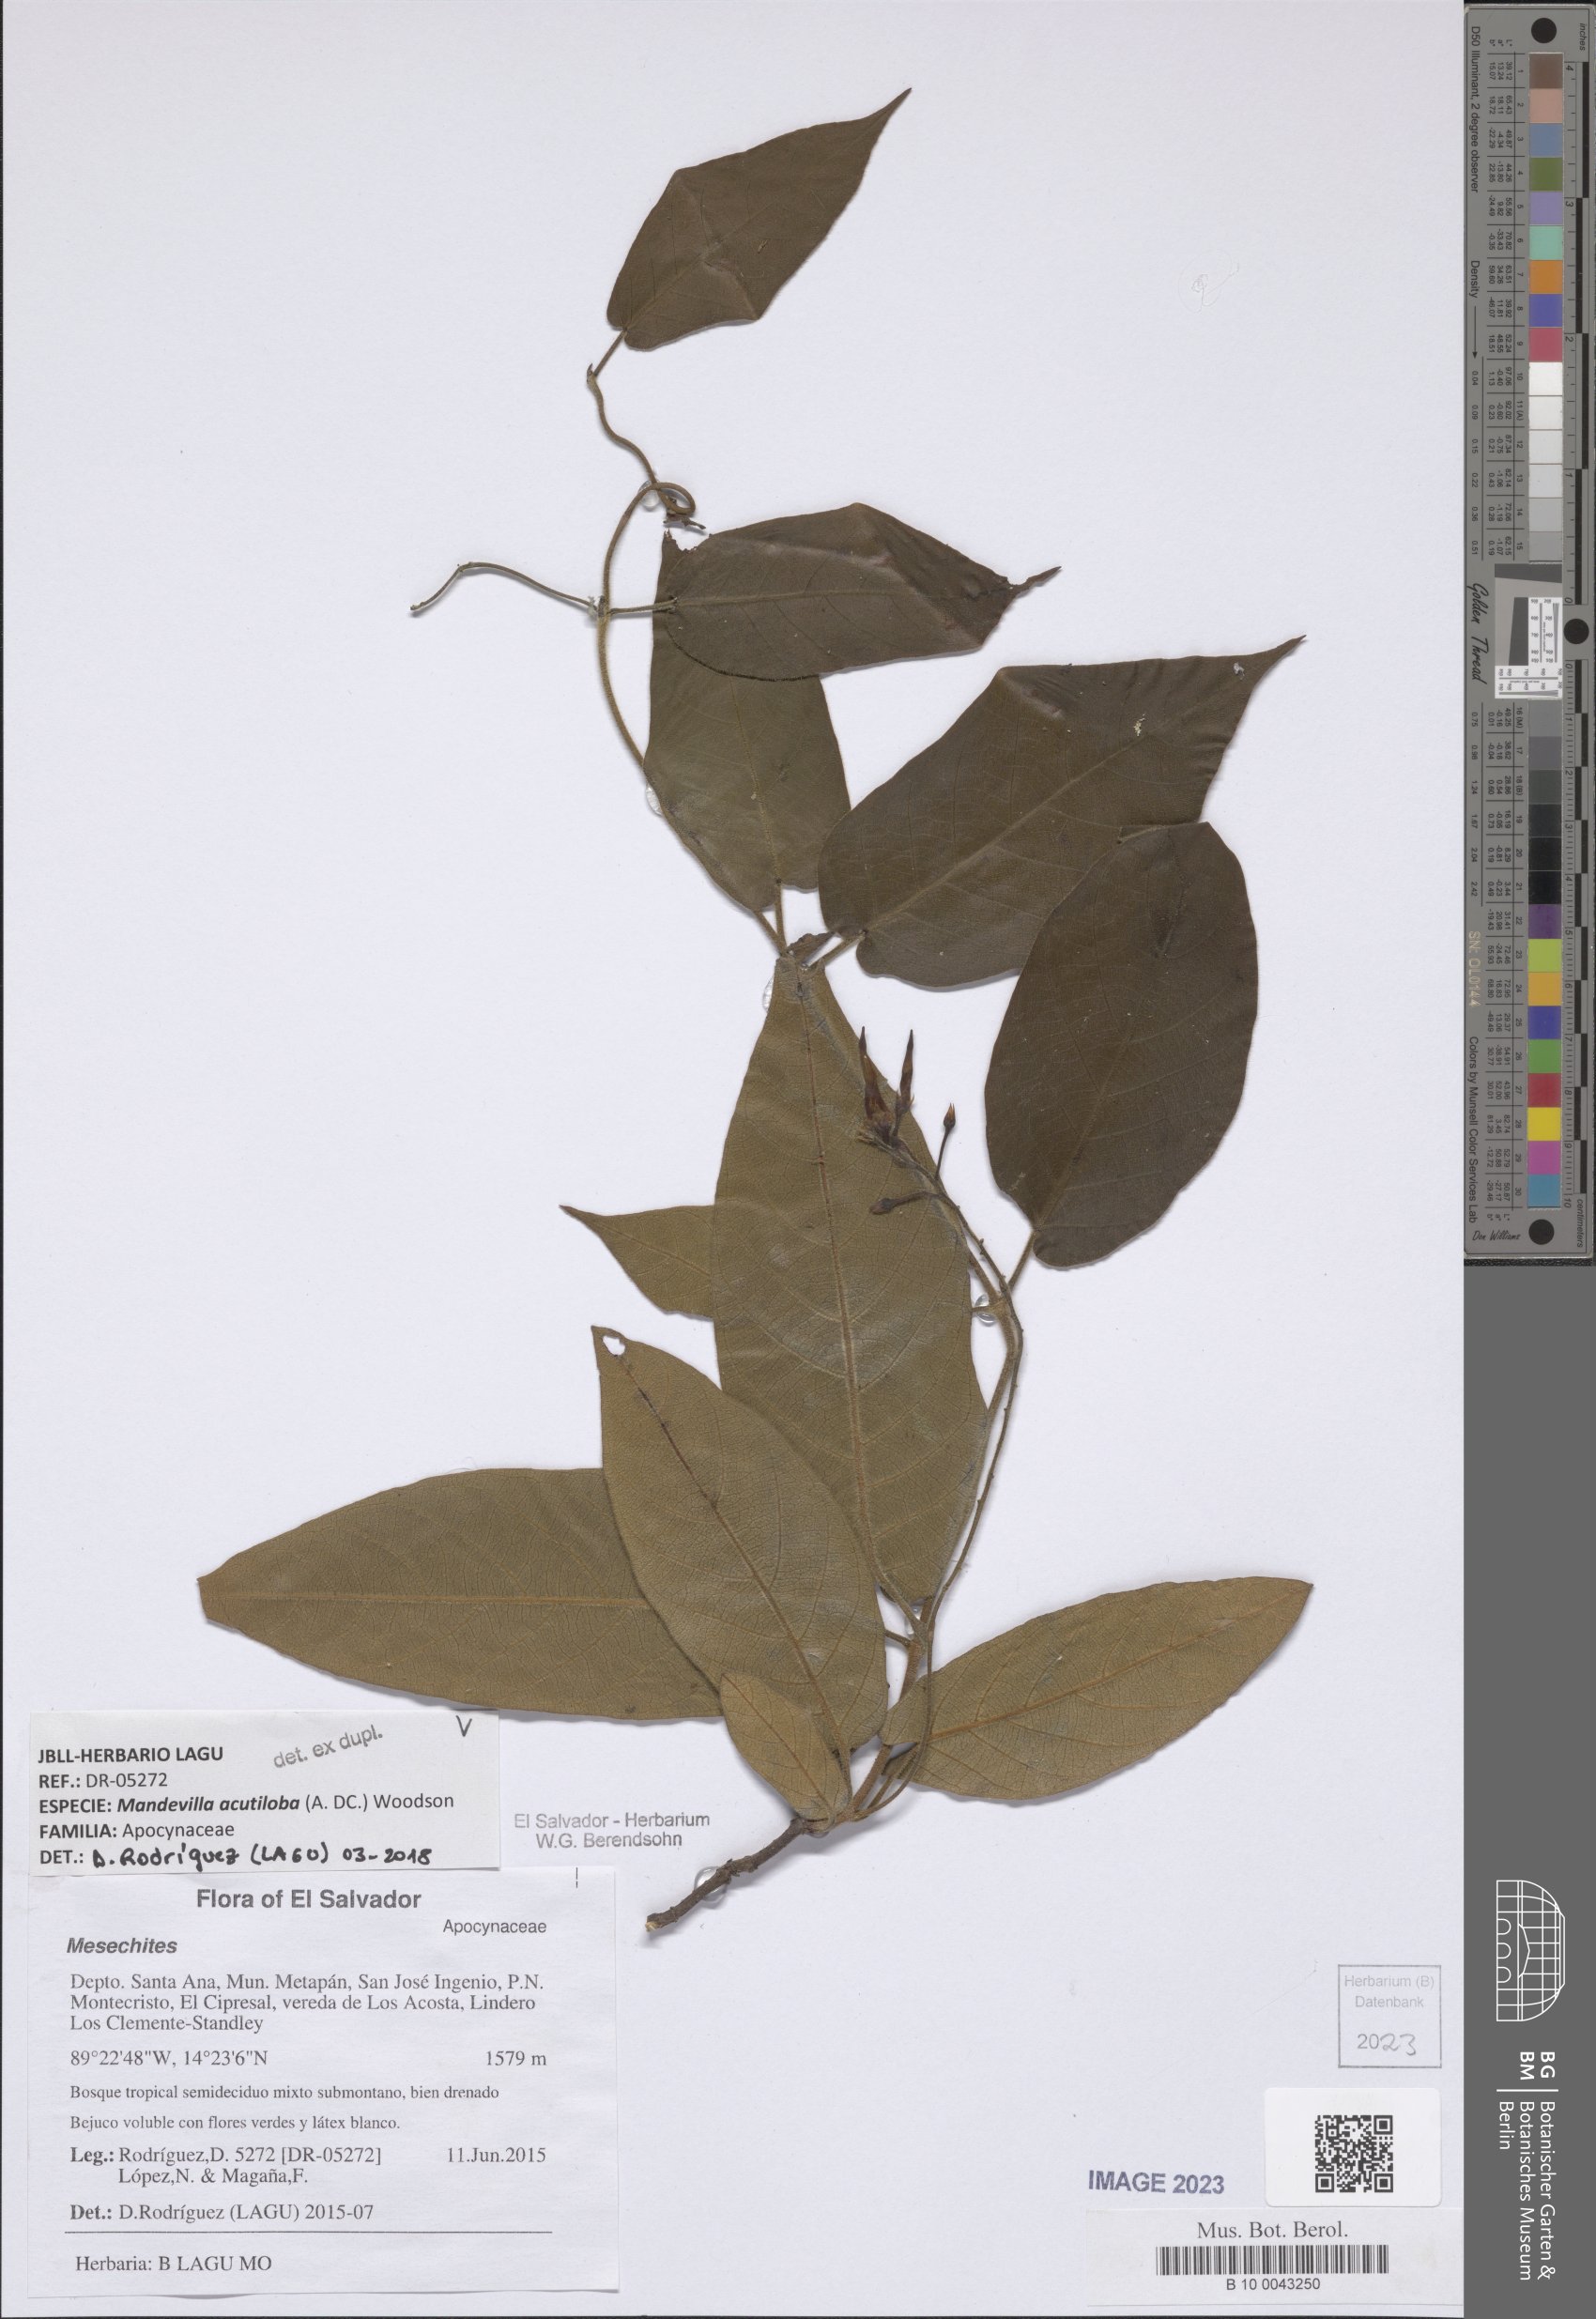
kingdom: Plantae
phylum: Tracheophyta
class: Magnoliopsida
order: Gentianales
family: Apocynaceae
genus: Mandevilla
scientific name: Mandevilla acutiloba
